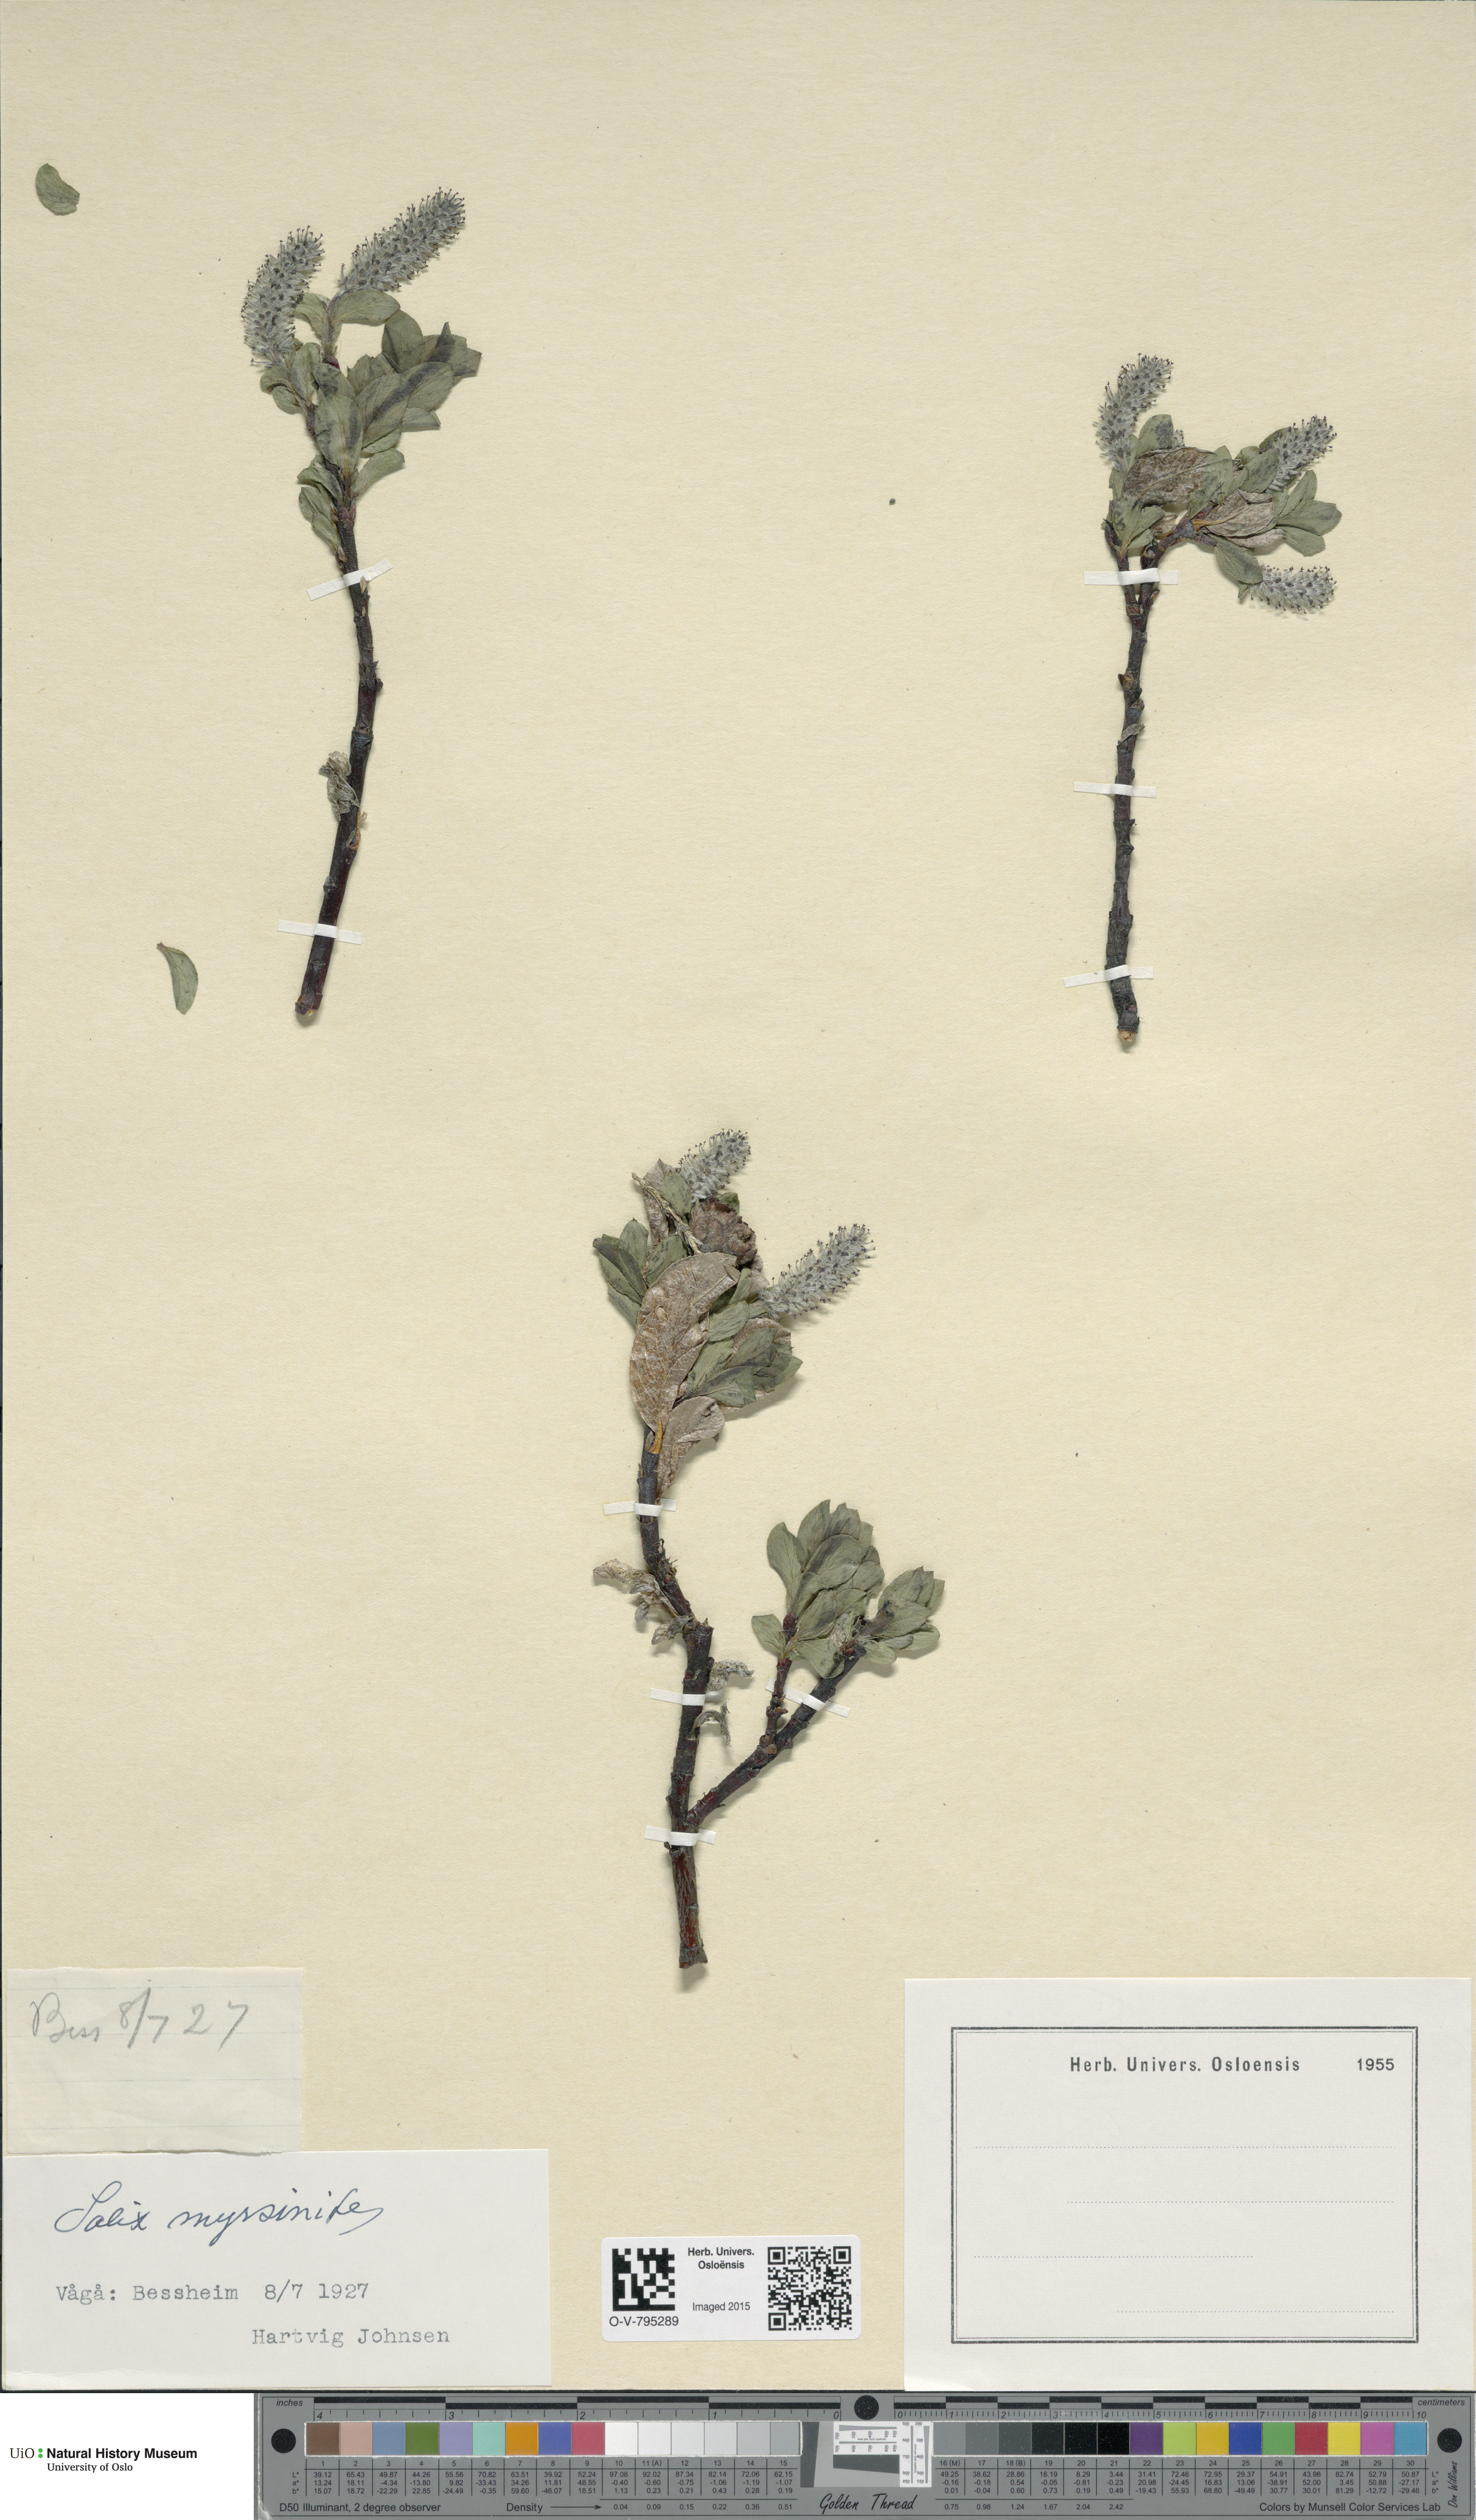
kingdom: Plantae
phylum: Tracheophyta
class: Magnoliopsida
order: Malpighiales
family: Salicaceae
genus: Salix
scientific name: Salix myrsinites
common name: Myrtle willow
